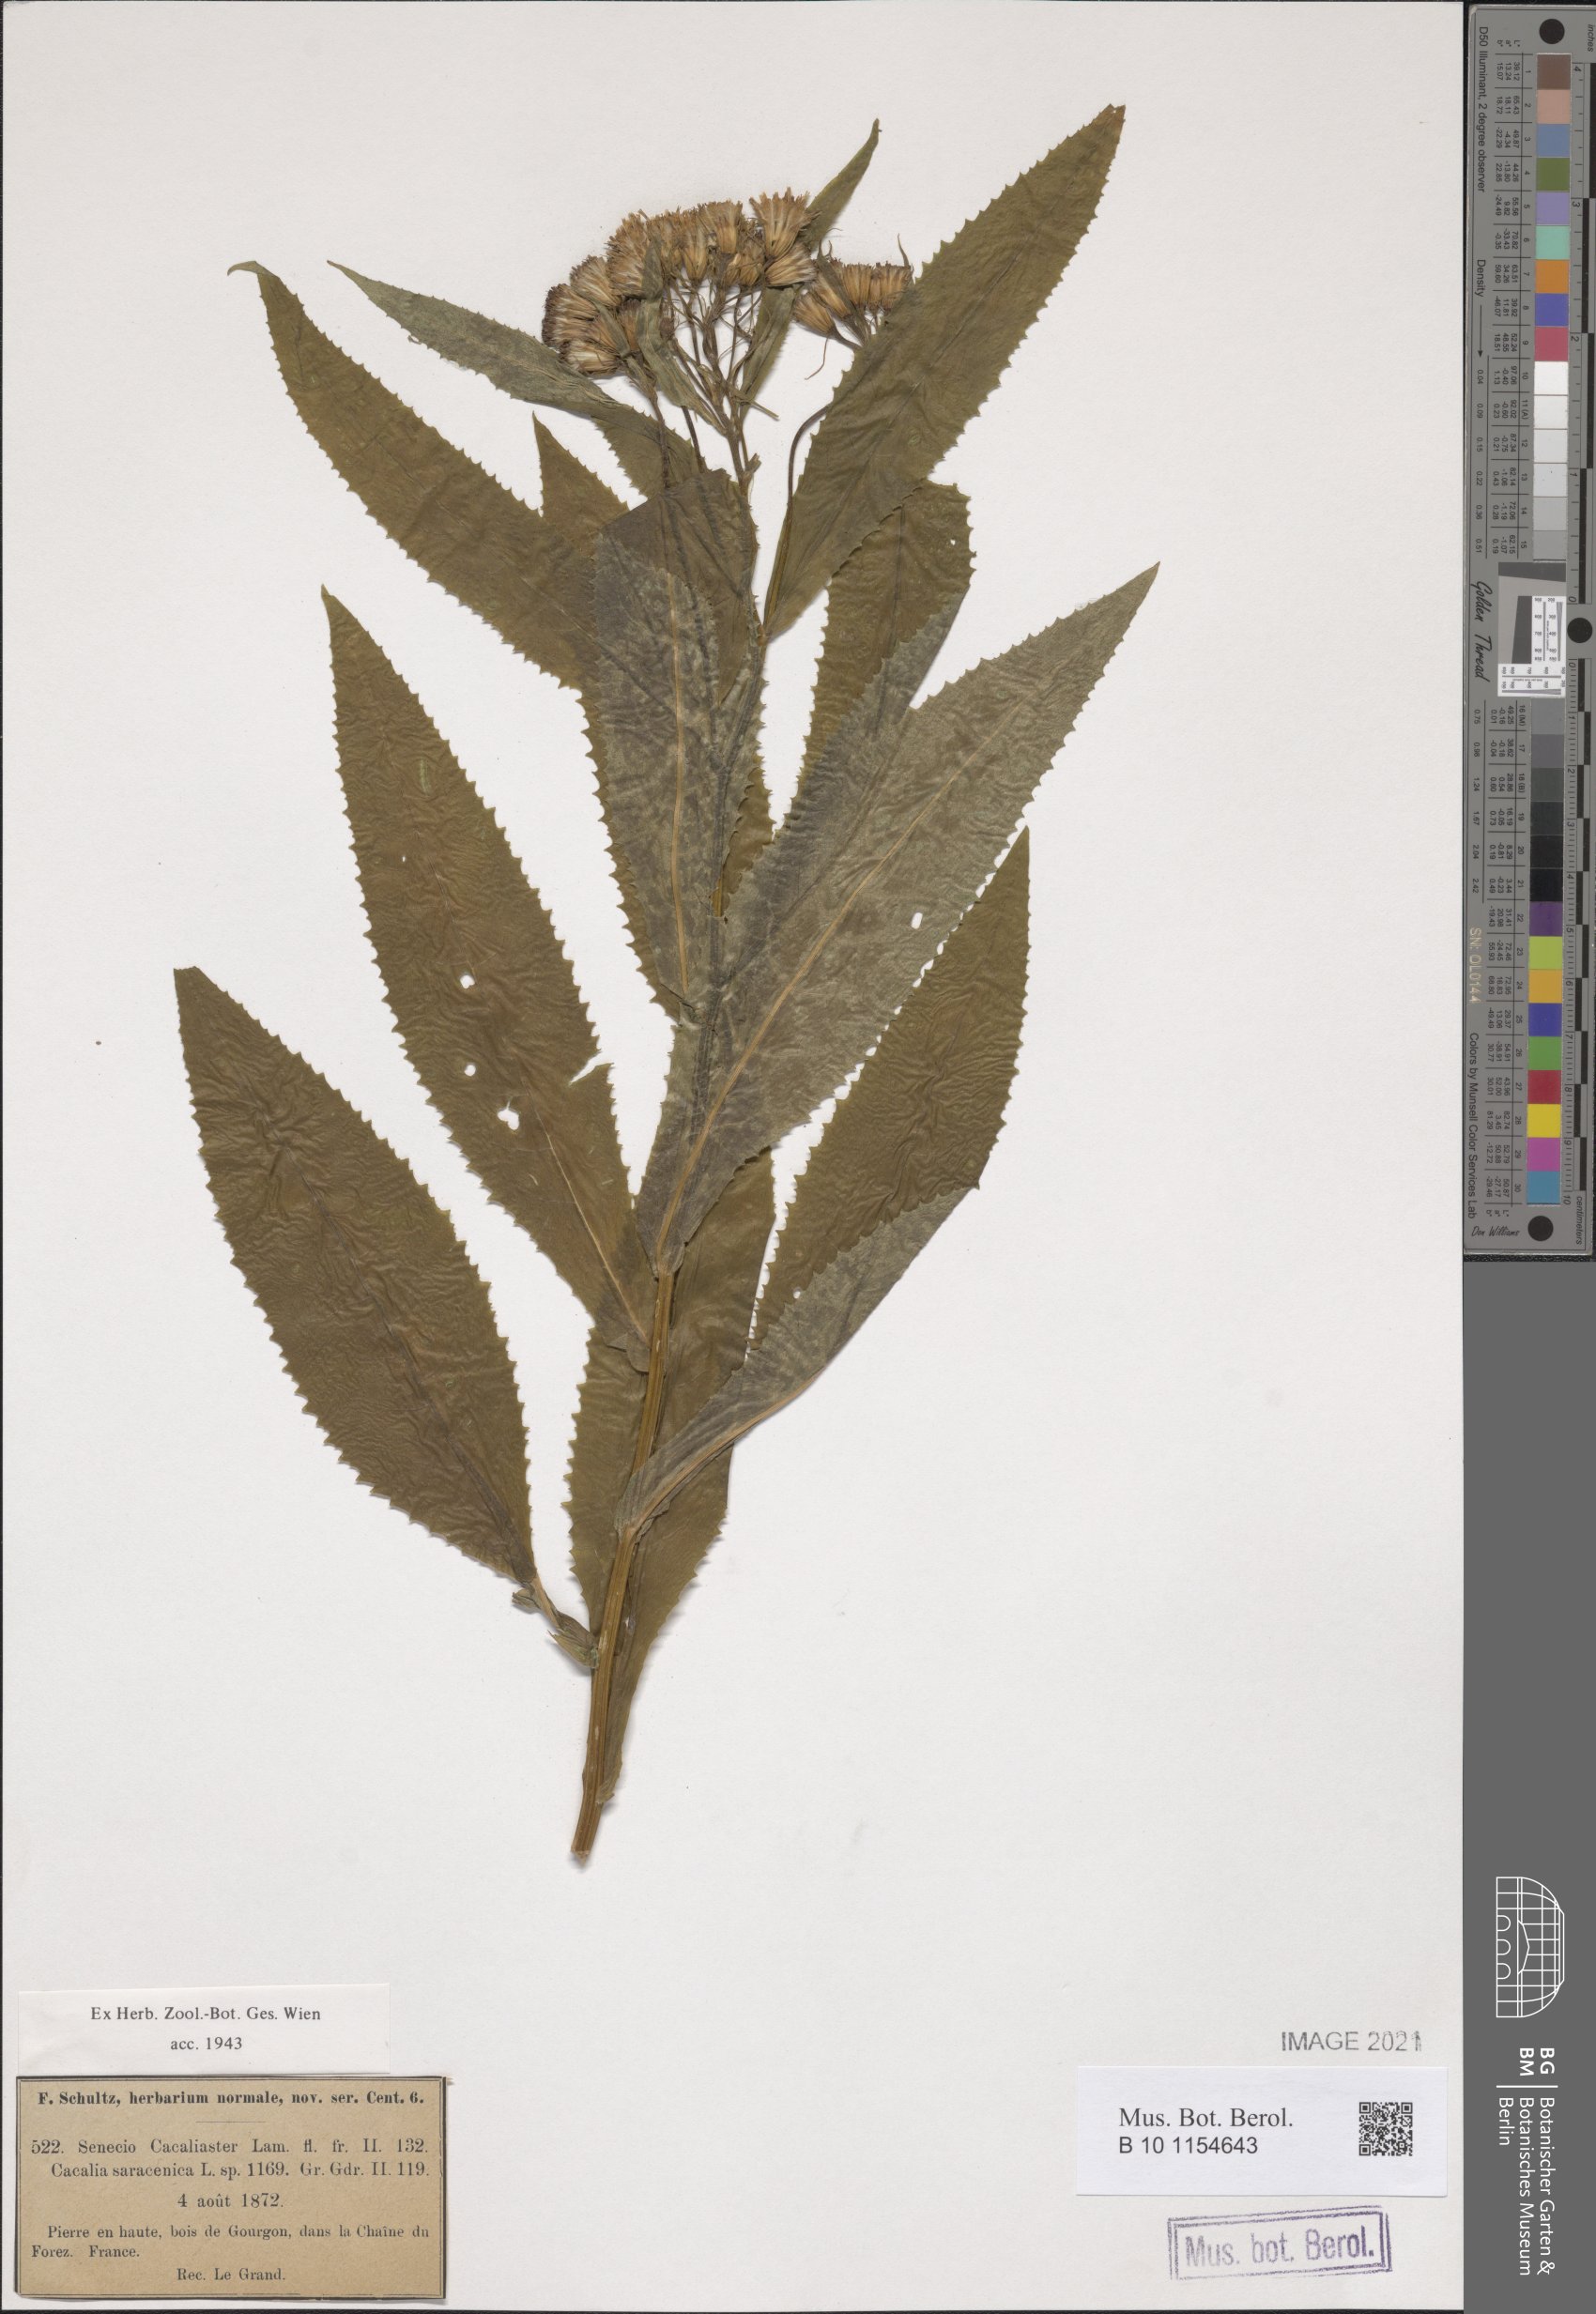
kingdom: Plantae
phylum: Tracheophyta
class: Magnoliopsida
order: Asterales
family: Asteraceae
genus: Senecio
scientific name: Senecio cacaliaster
